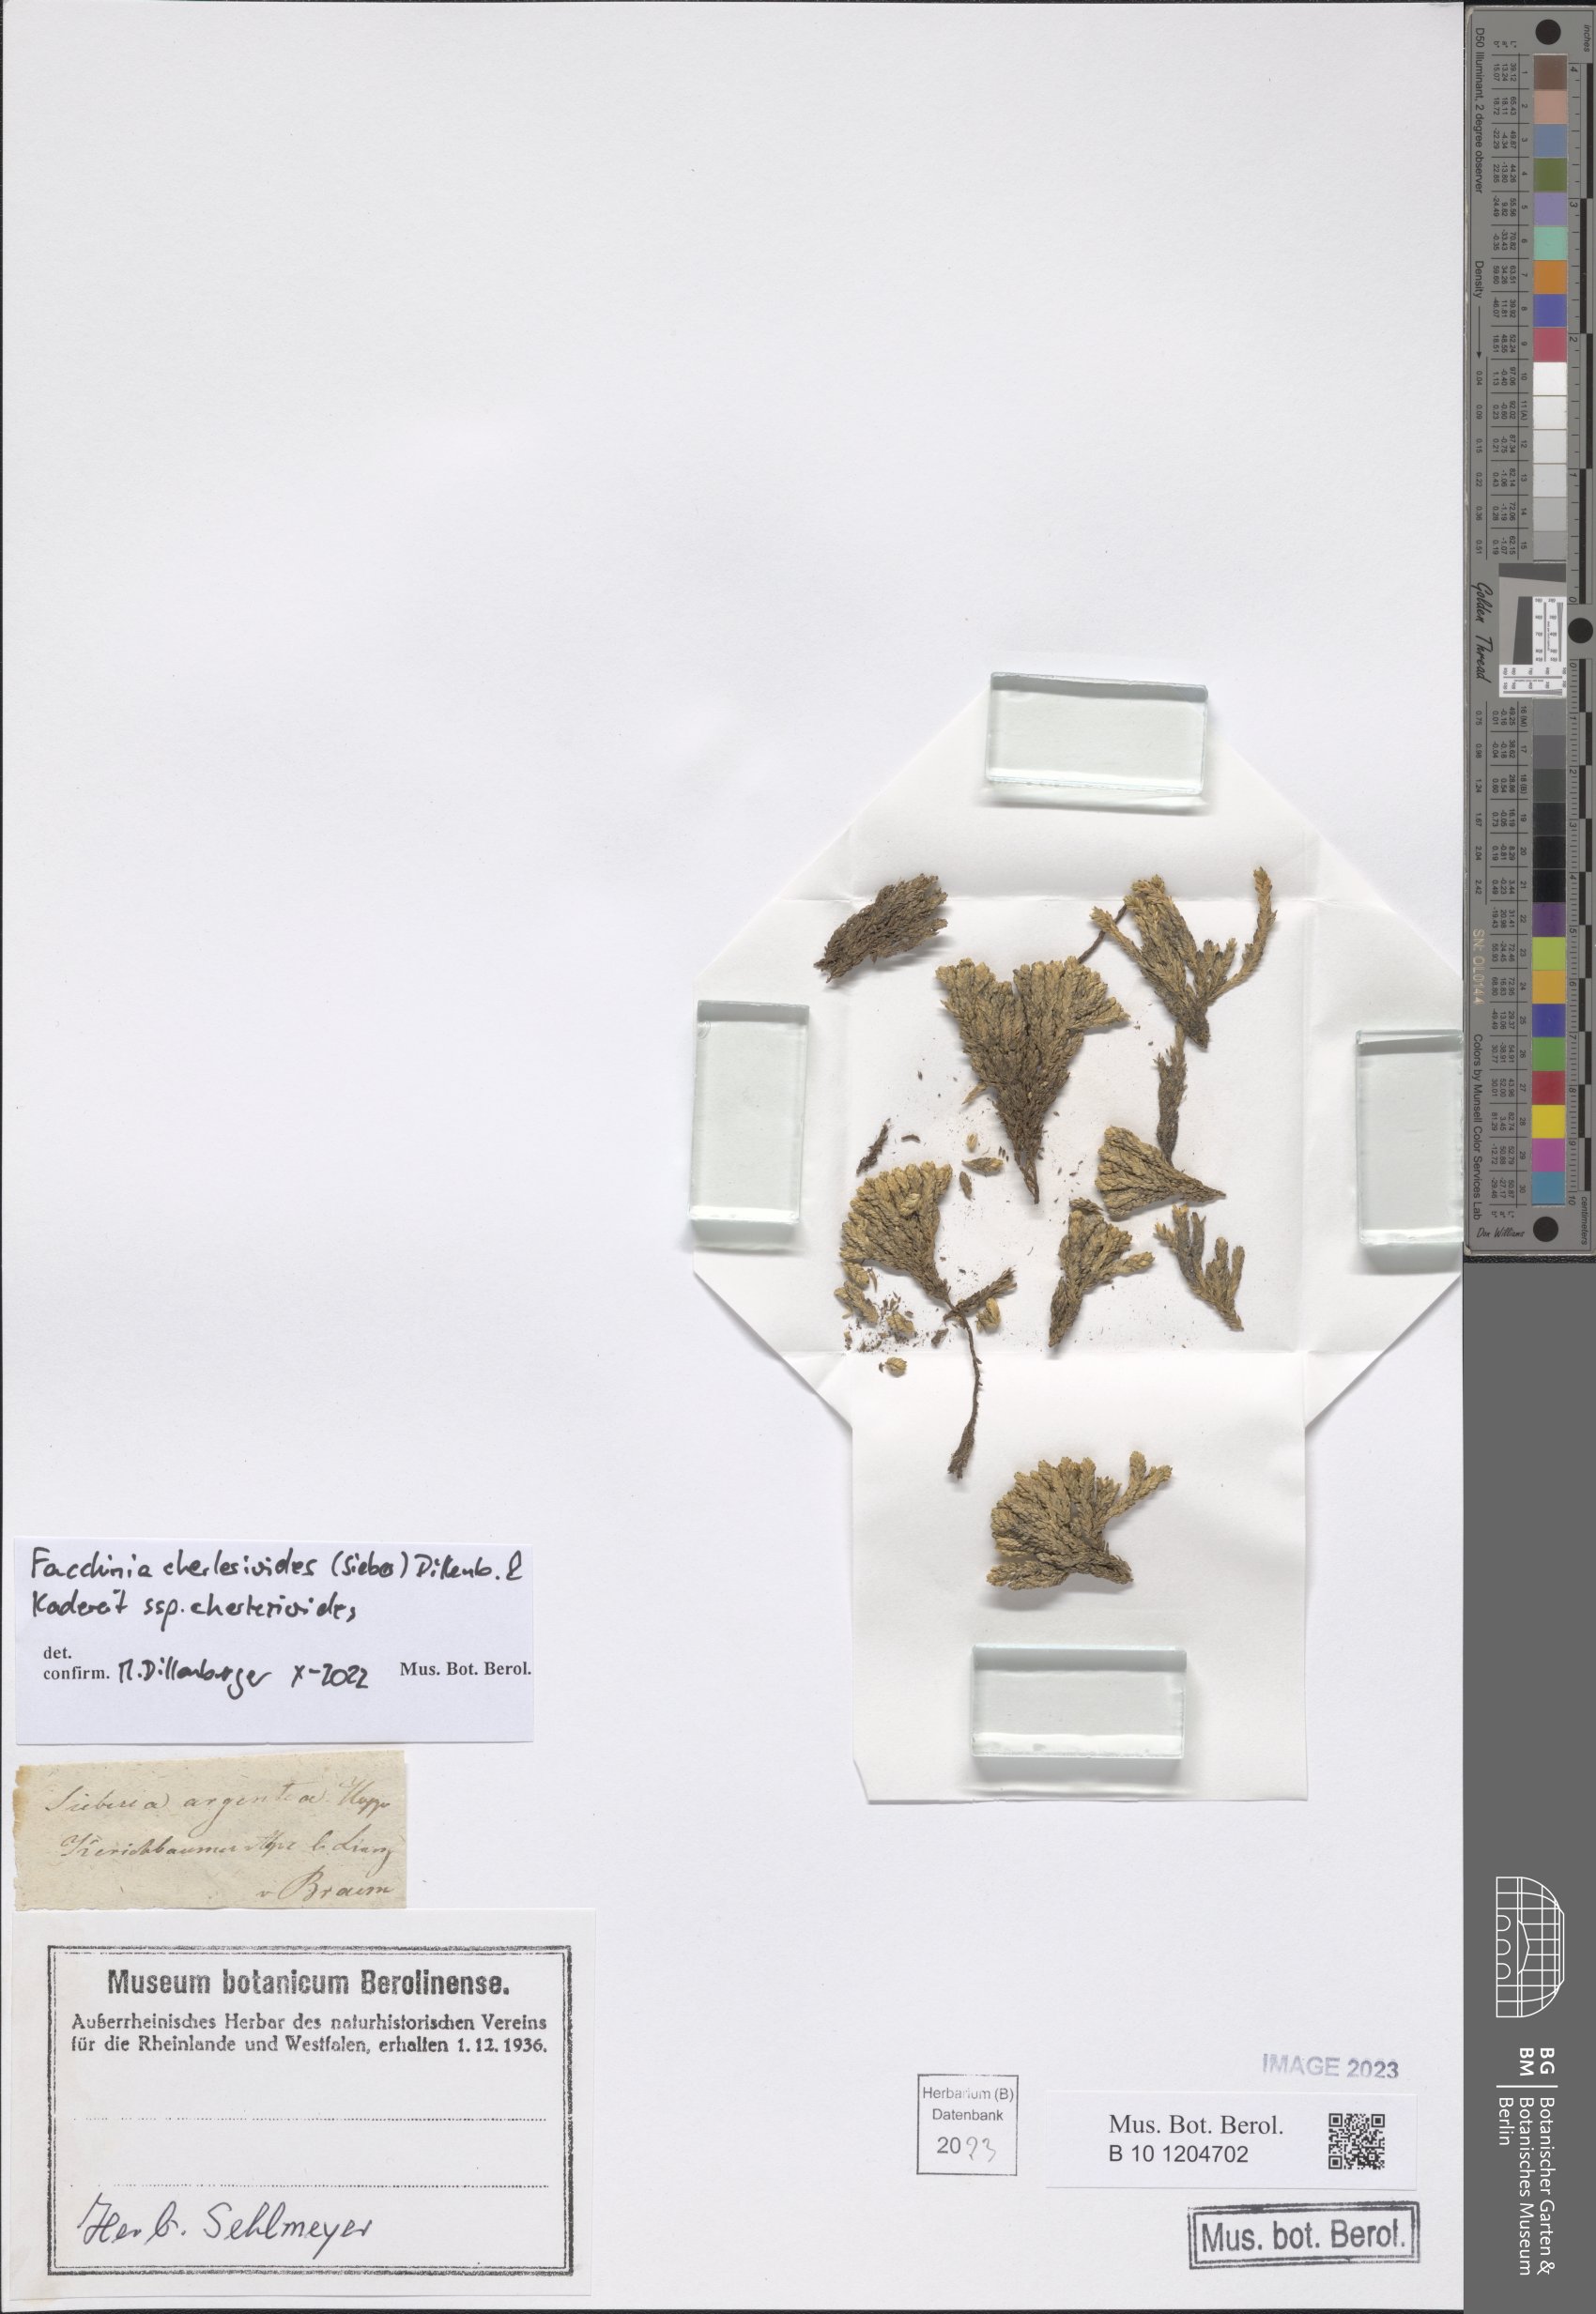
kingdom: Plantae
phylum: Tracheophyta
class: Magnoliopsida
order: Caryophyllales
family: Caryophyllaceae
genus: Facchinia
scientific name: Facchinia cherlerioides
